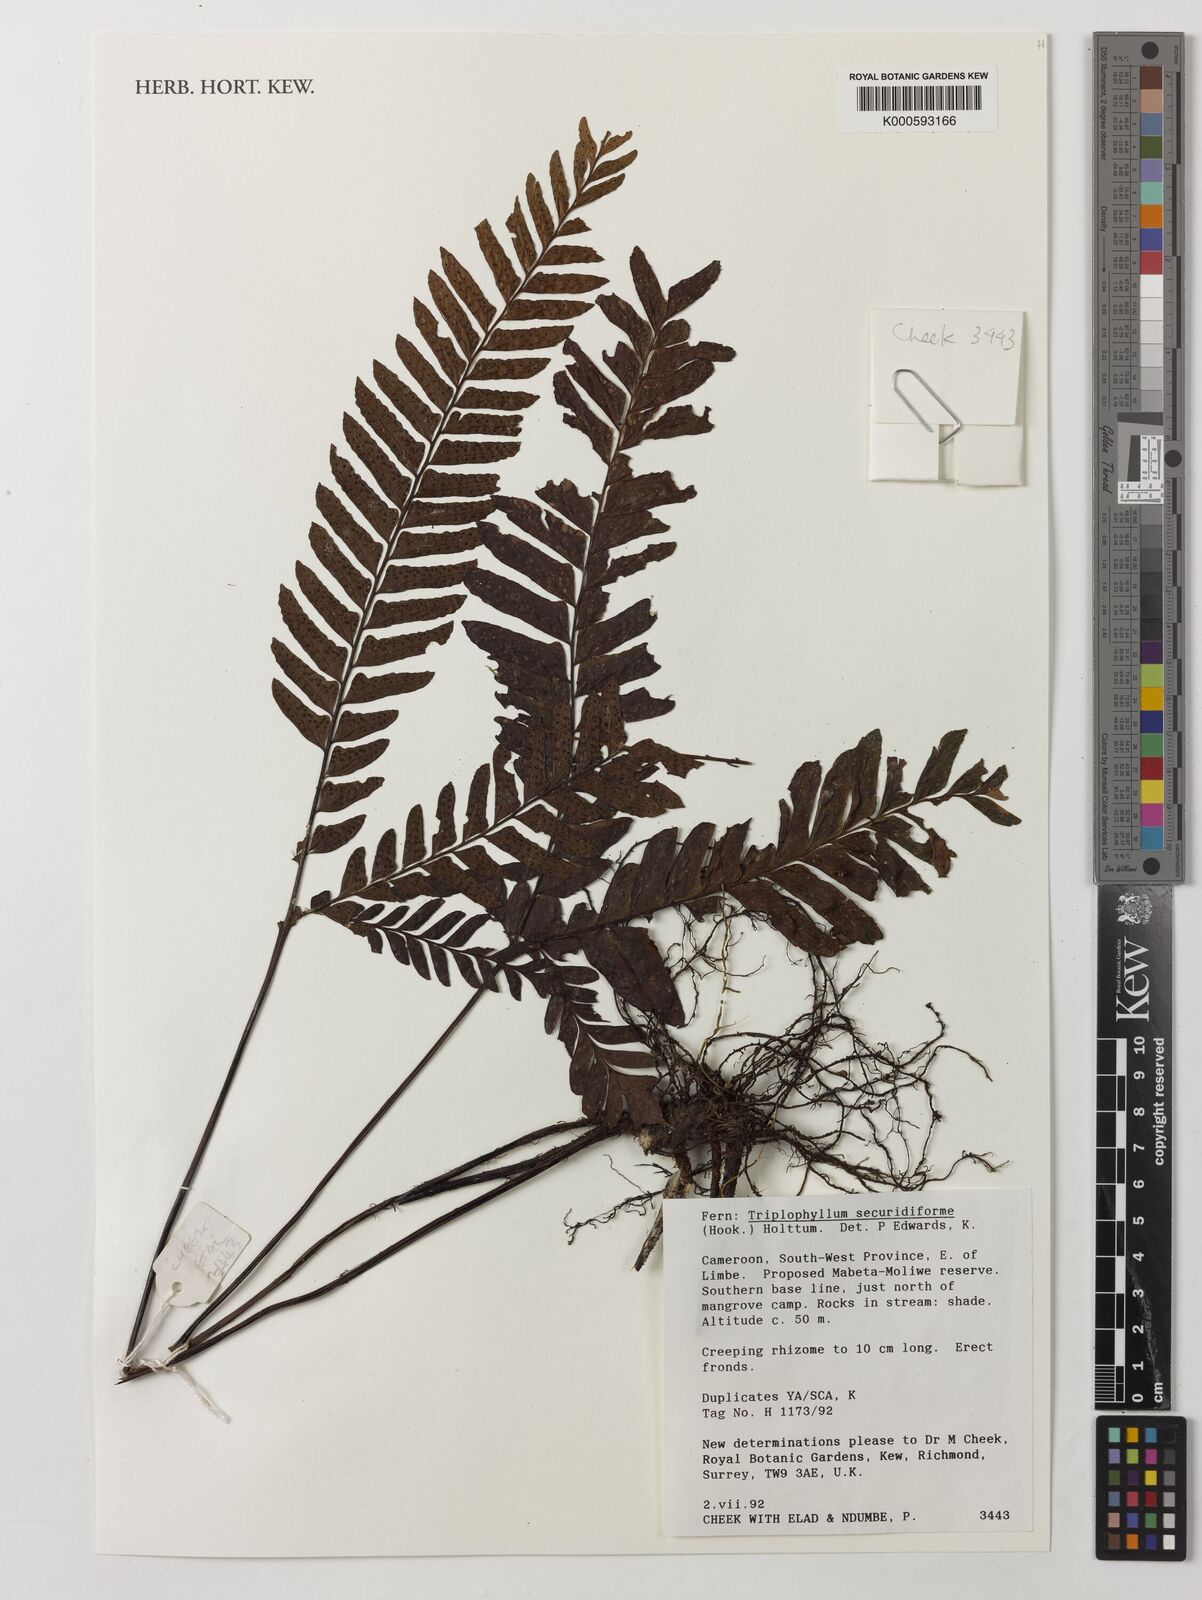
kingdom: Plantae
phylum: Tracheophyta
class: Polypodiopsida
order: Polypodiales
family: Tectariaceae
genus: Triplophyllum
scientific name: Triplophyllum securidiforme
